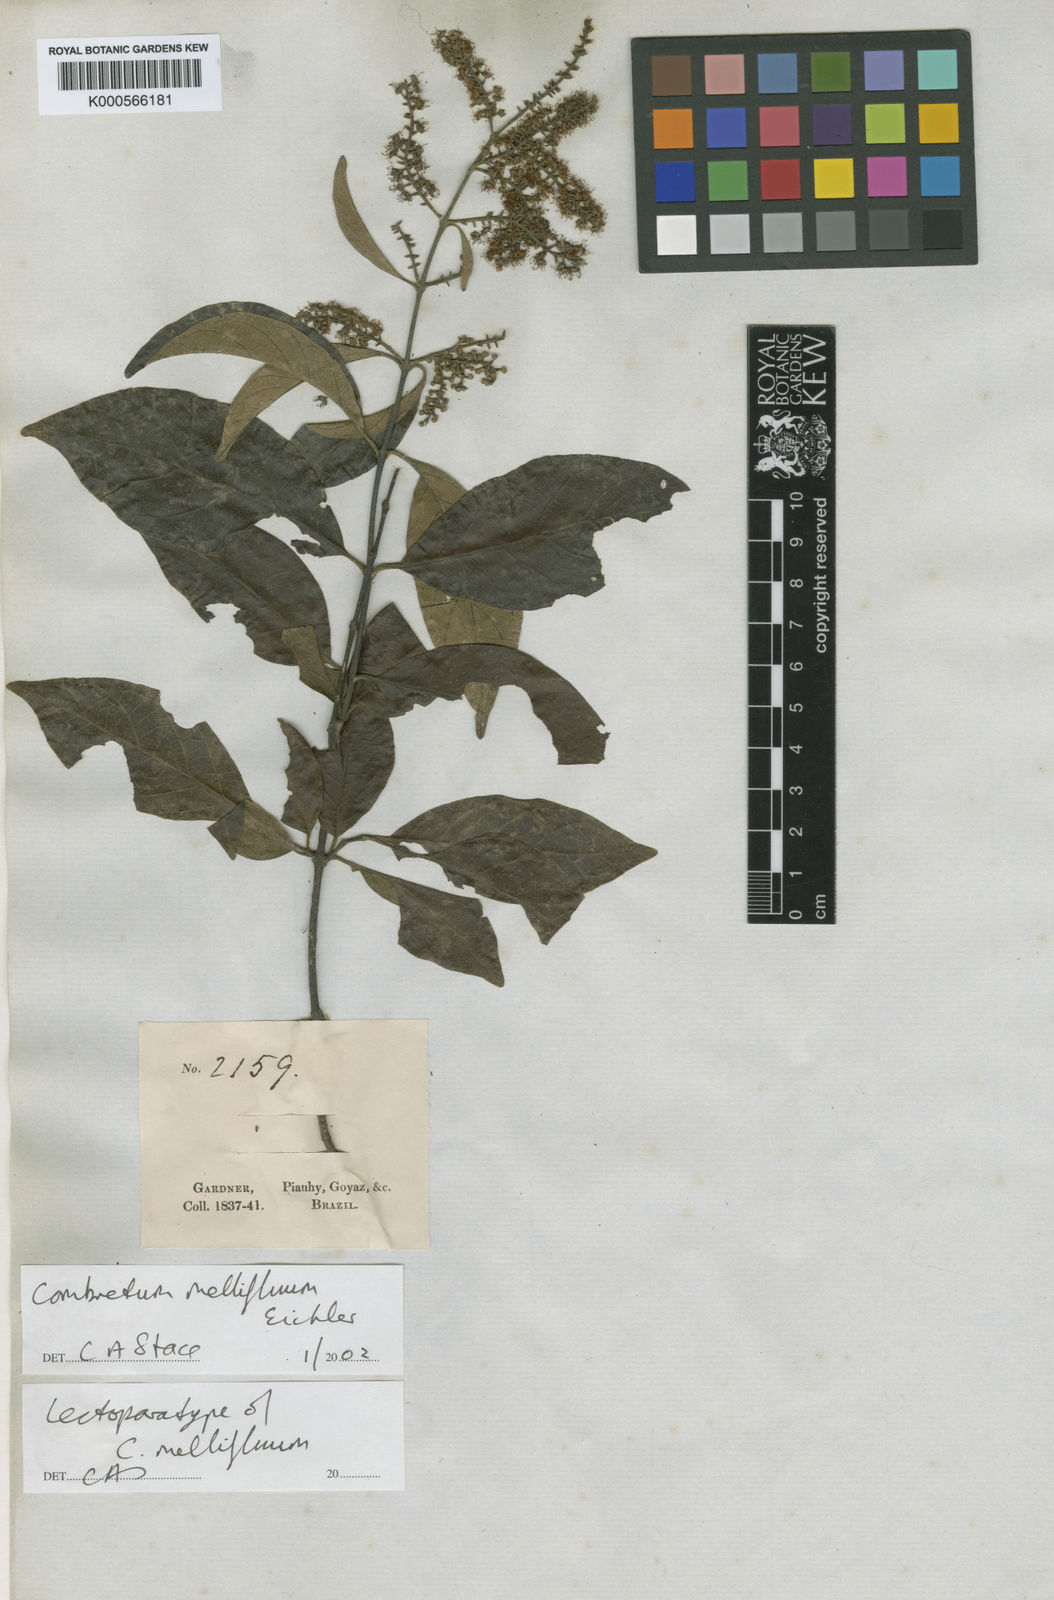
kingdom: Plantae
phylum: Tracheophyta
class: Magnoliopsida
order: Myrtales
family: Combretaceae
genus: Combretum
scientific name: Combretum mellifluum
